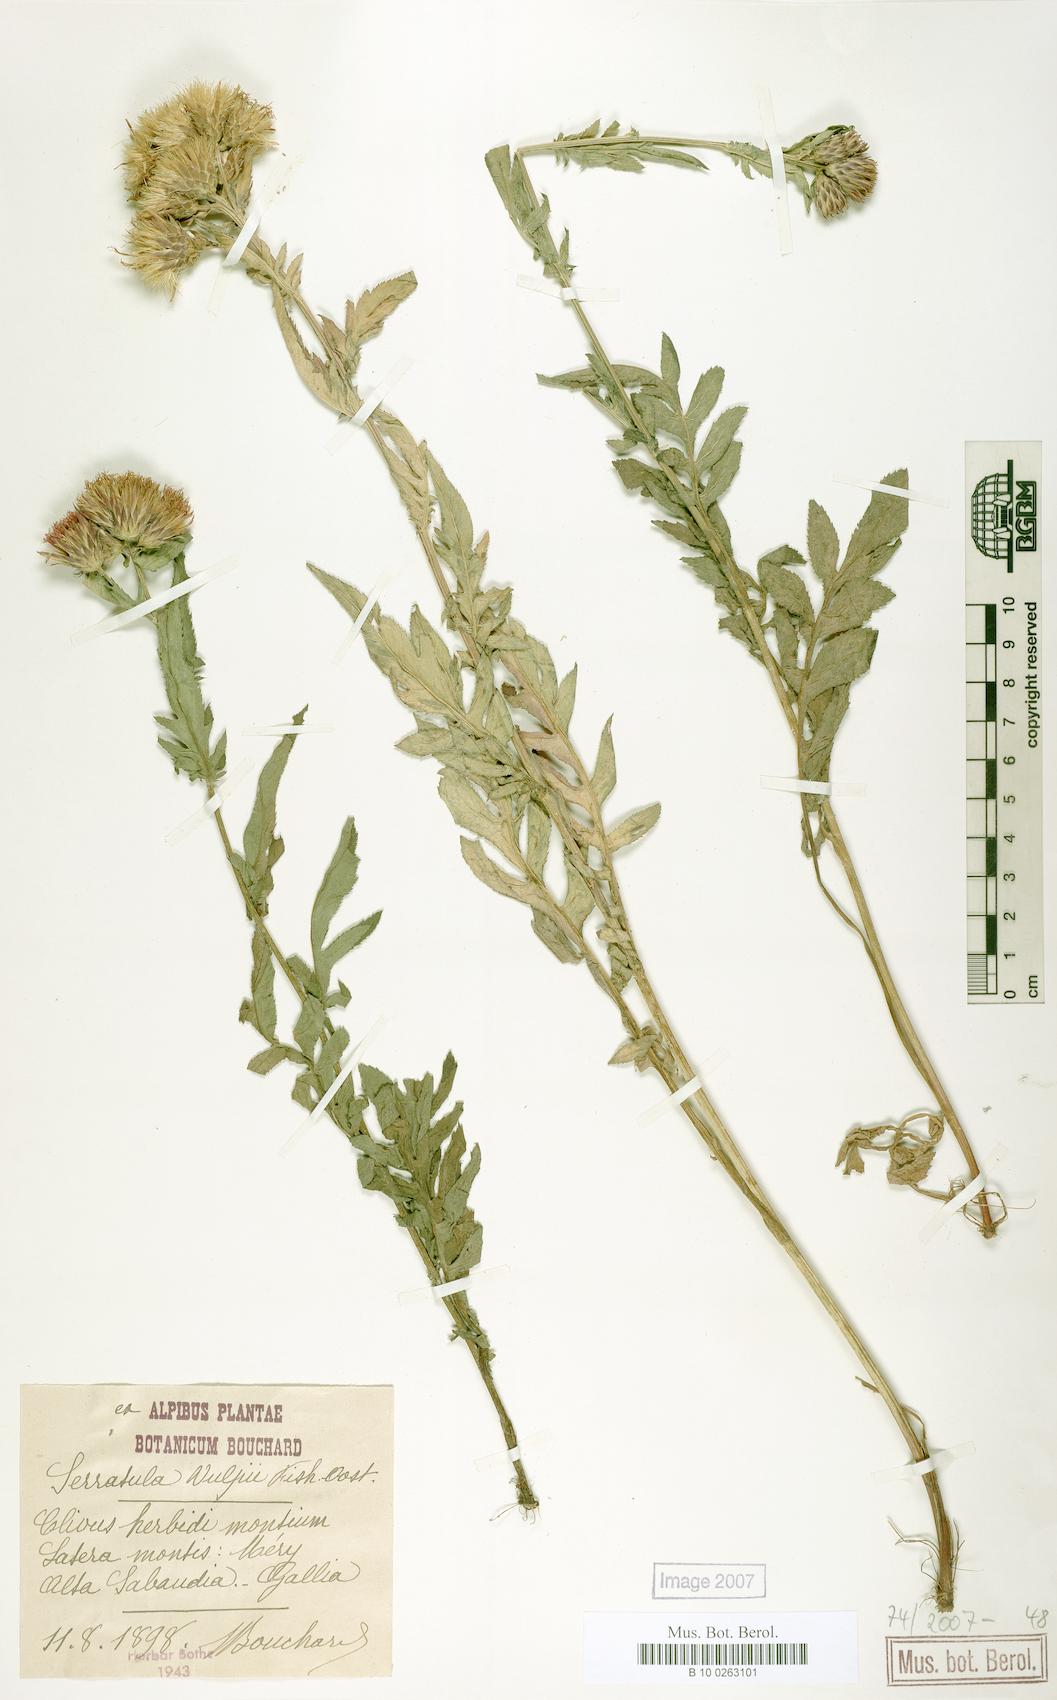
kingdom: Plantae
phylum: Tracheophyta
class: Magnoliopsida
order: Asterales
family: Asteraceae
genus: Serratula
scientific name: Serratula tinctoria
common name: Saw-wort
